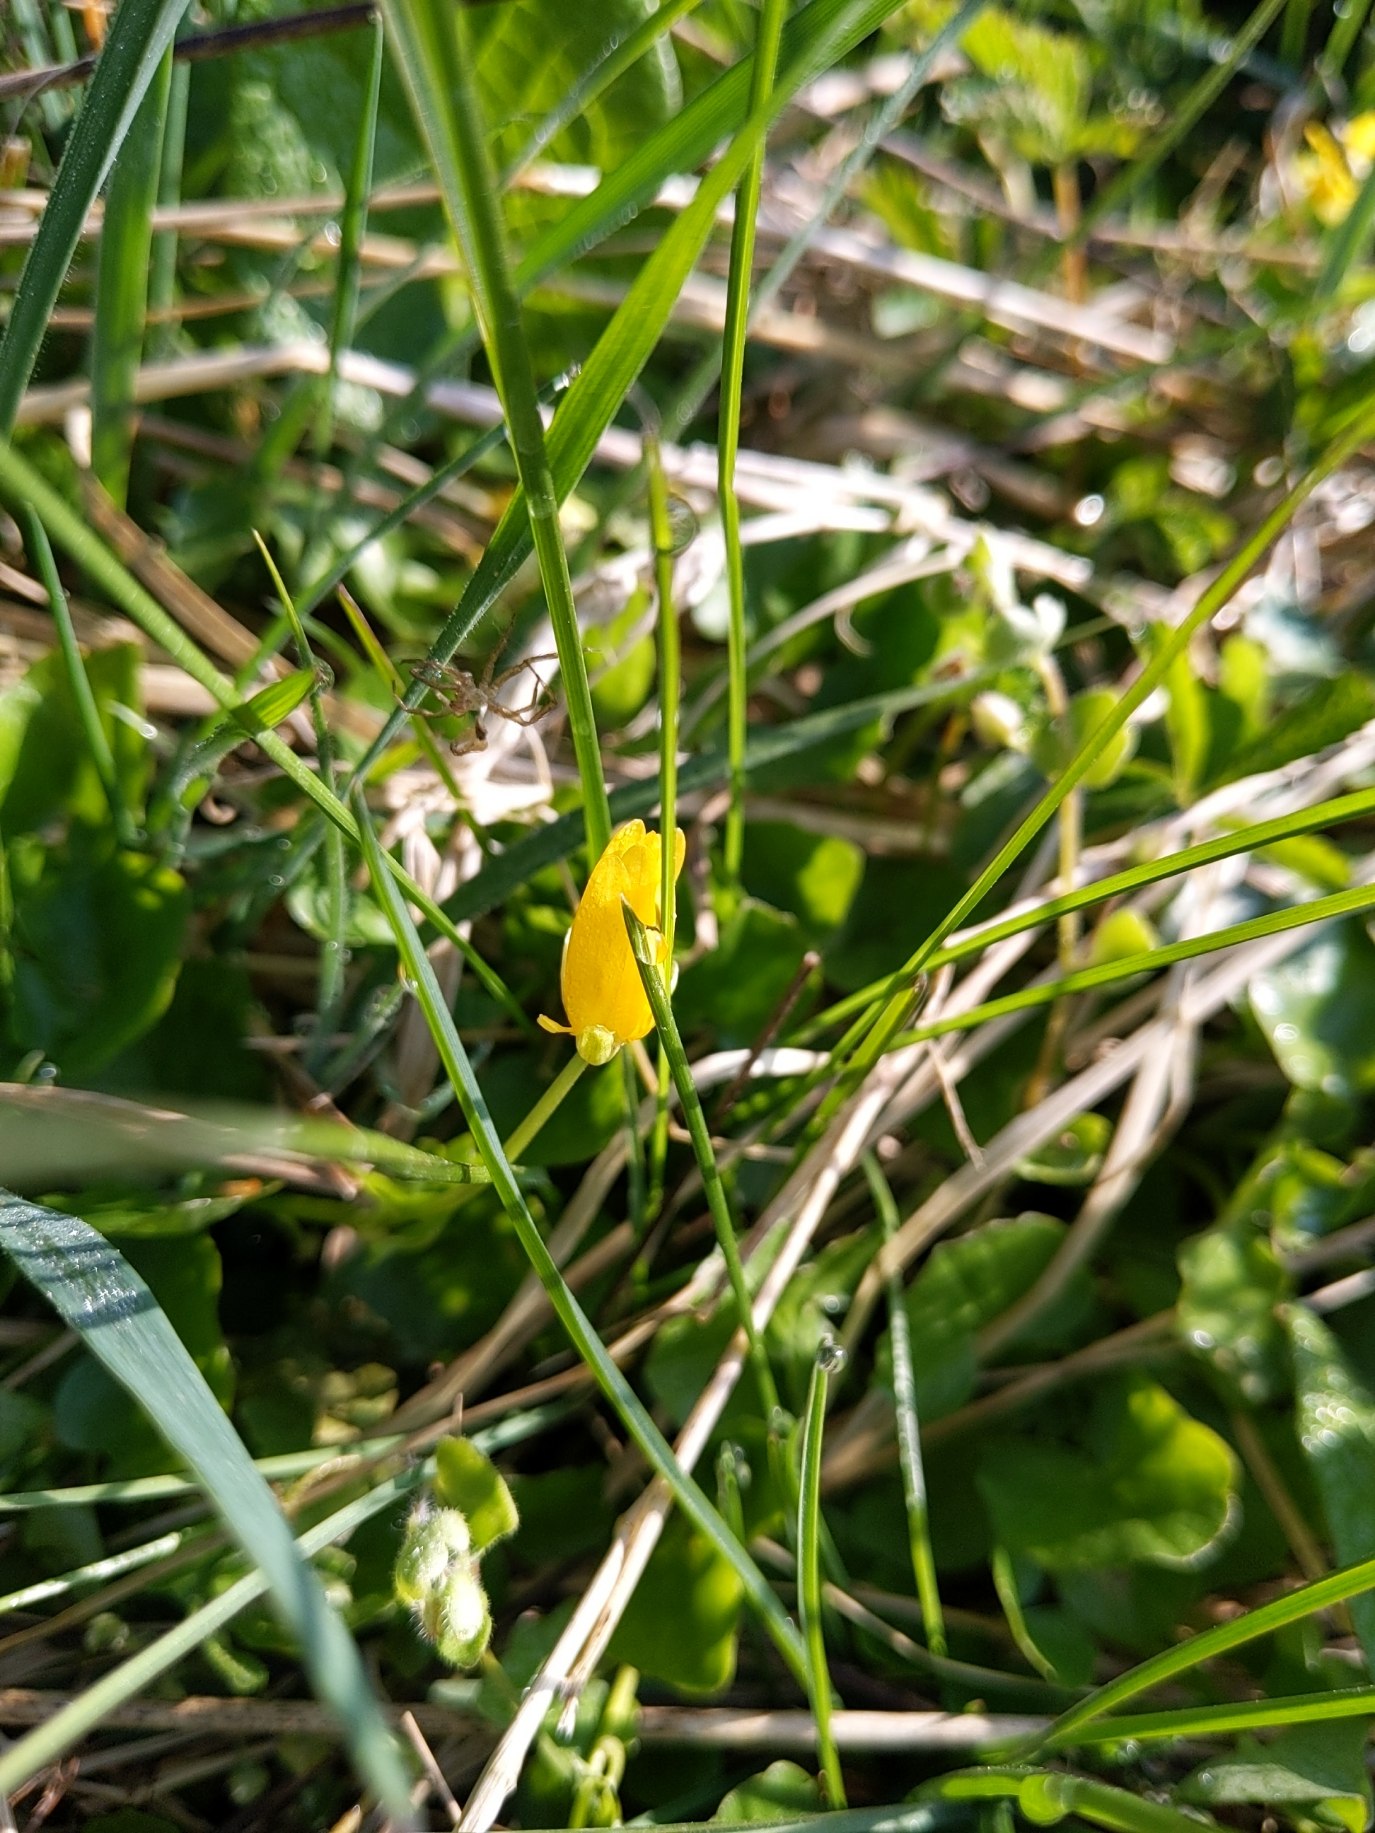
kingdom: Plantae
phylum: Tracheophyta
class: Magnoliopsida
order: Ranunculales
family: Ranunculaceae
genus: Ficaria
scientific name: Ficaria verna
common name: Vorterod
